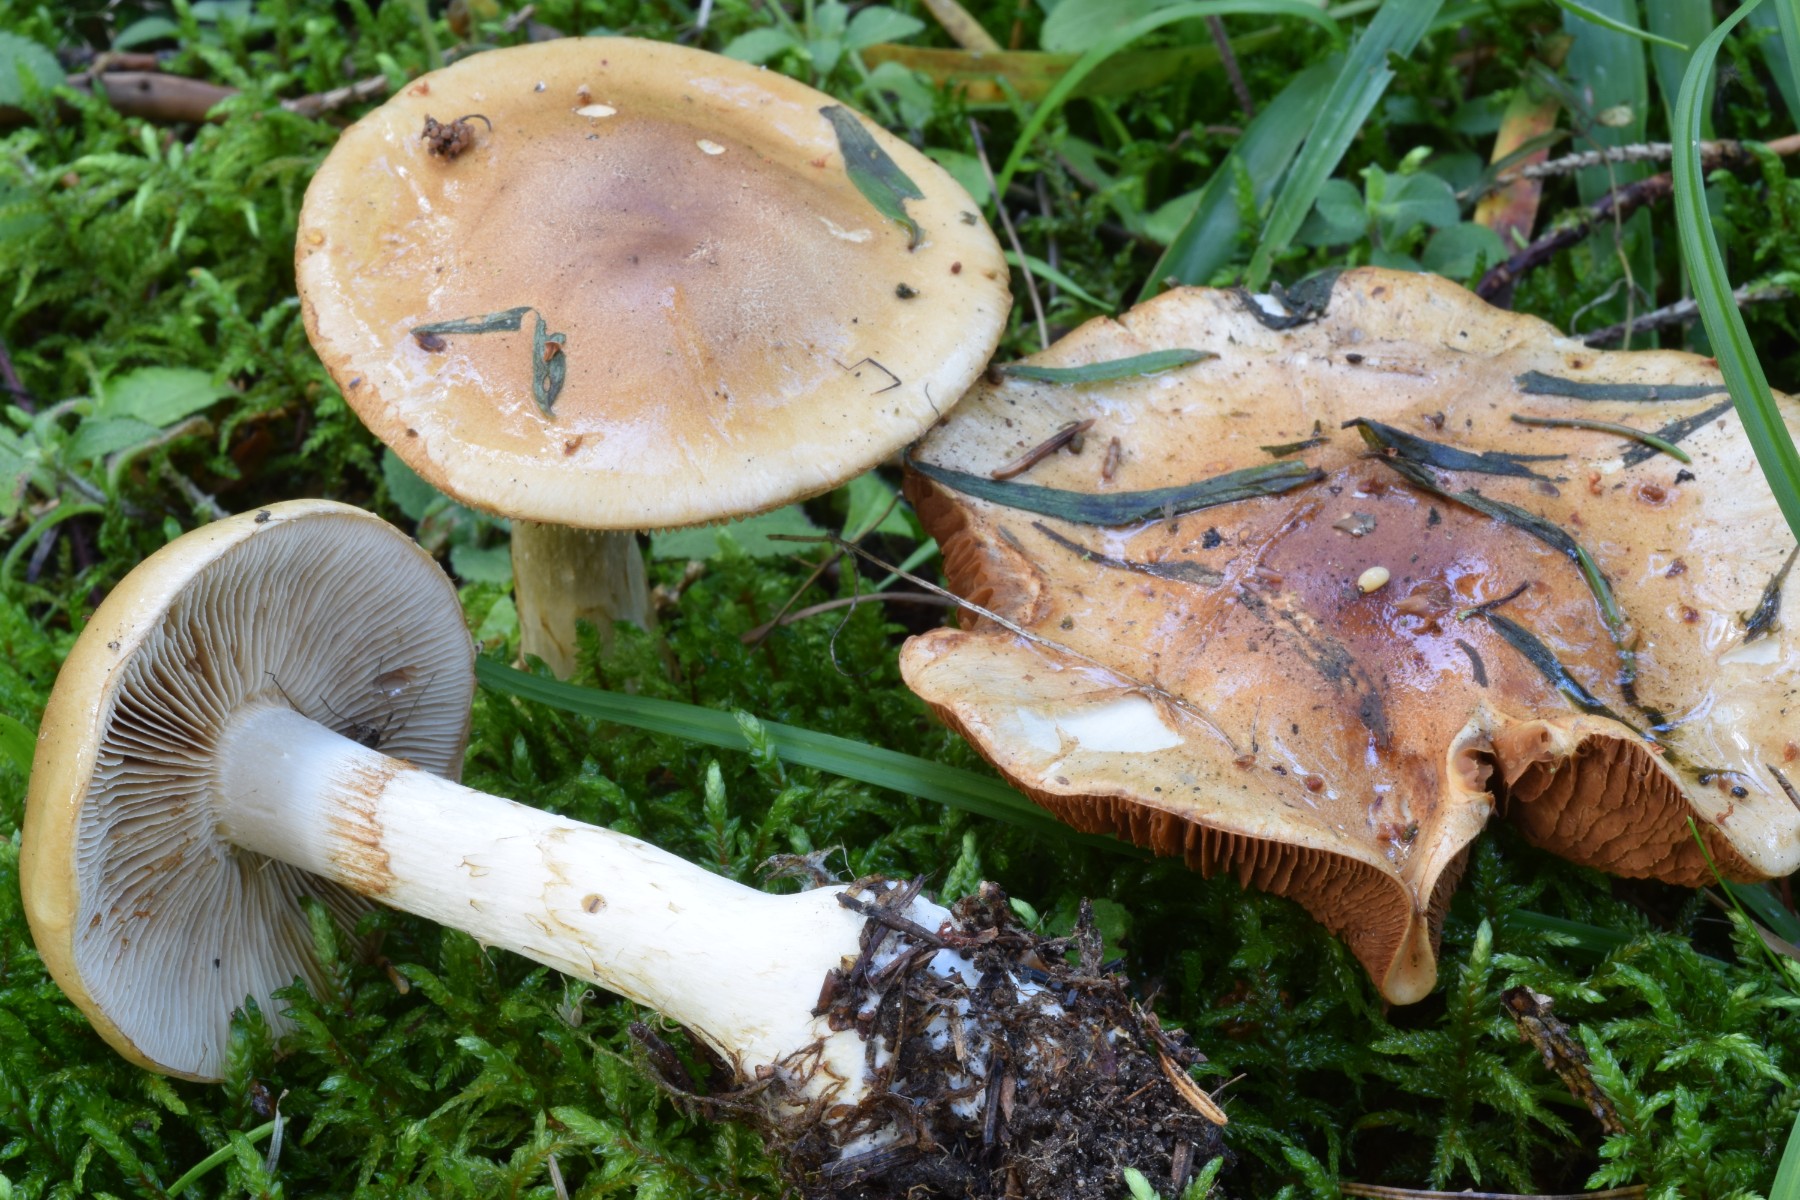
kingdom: Fungi
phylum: Basidiomycota
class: Agaricomycetes
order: Agaricales
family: Cortinariaceae
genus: Phlegmacium
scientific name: Phlegmacium papulosum
